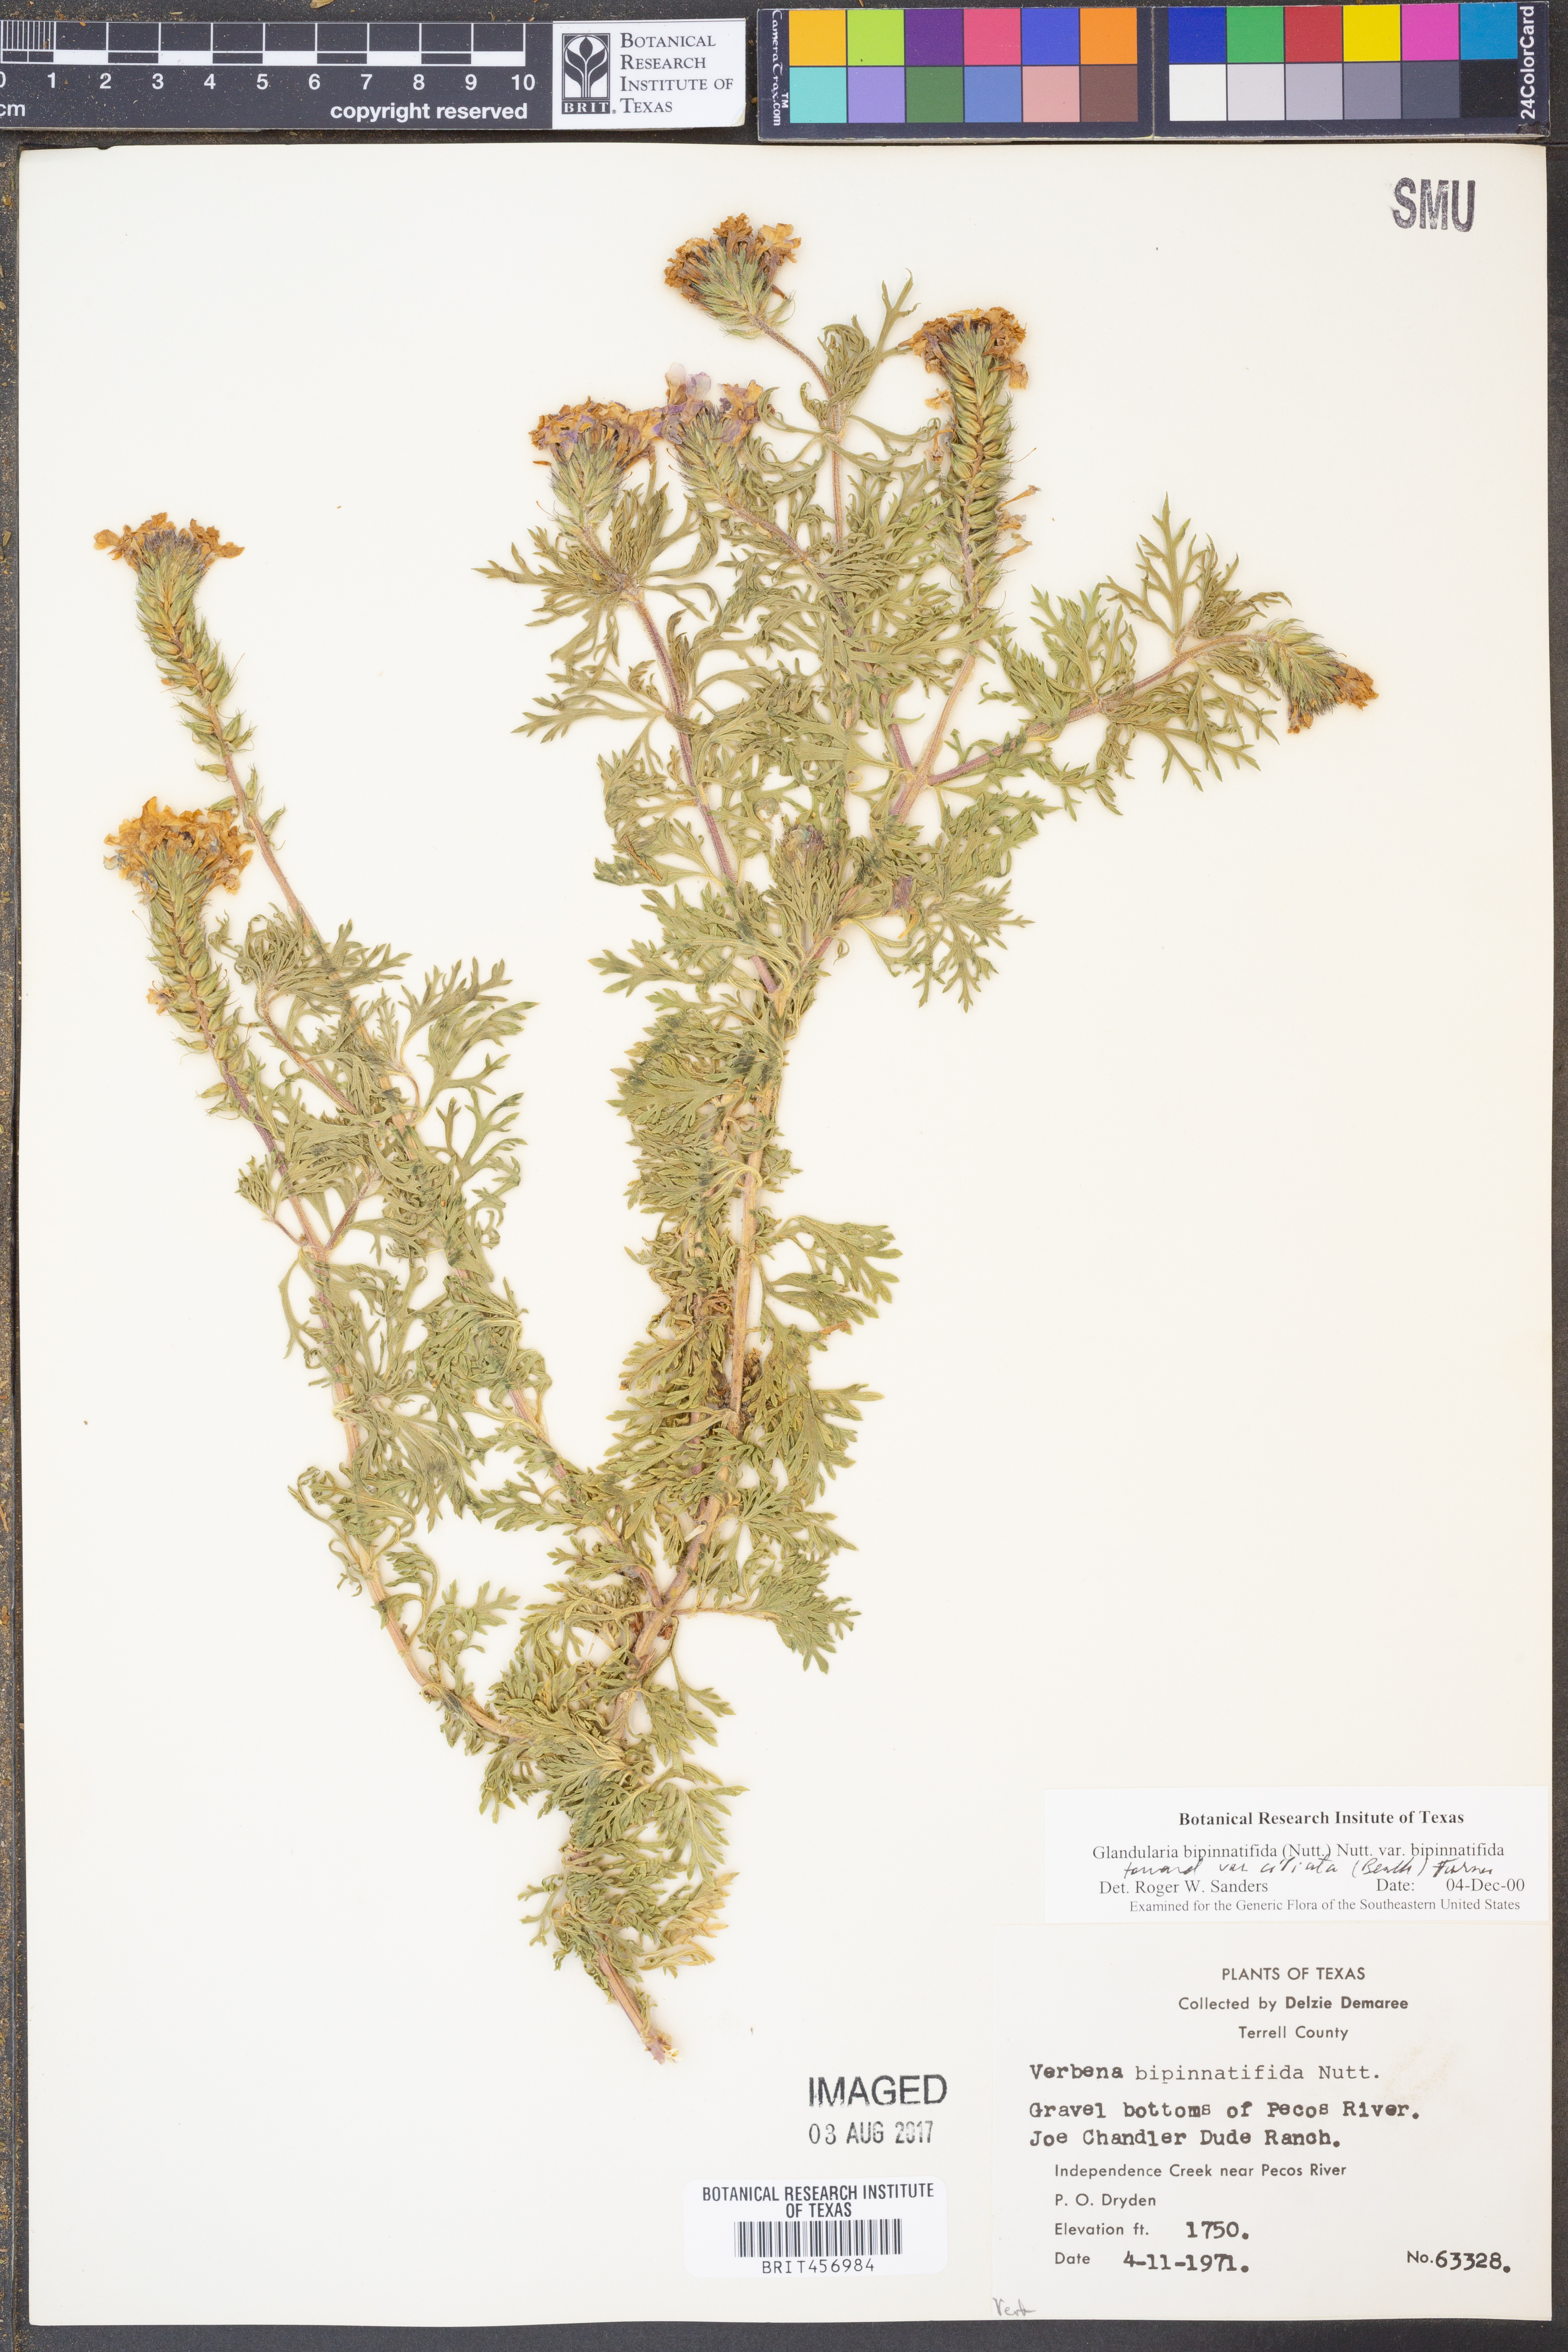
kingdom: Plantae
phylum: Tracheophyta
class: Magnoliopsida
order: Lamiales
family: Verbenaceae
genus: Verbena
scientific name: Verbena bipinnatifida
